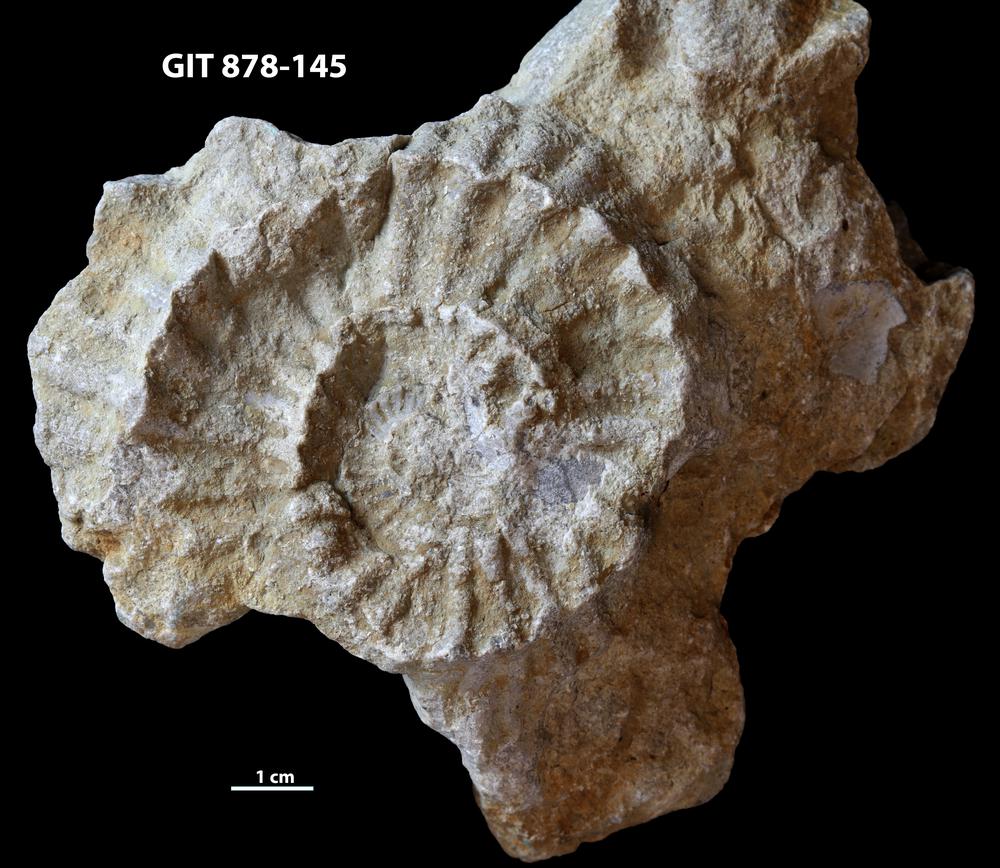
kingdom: Animalia
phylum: Mollusca
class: Cephalopoda
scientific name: Cephalopoda
